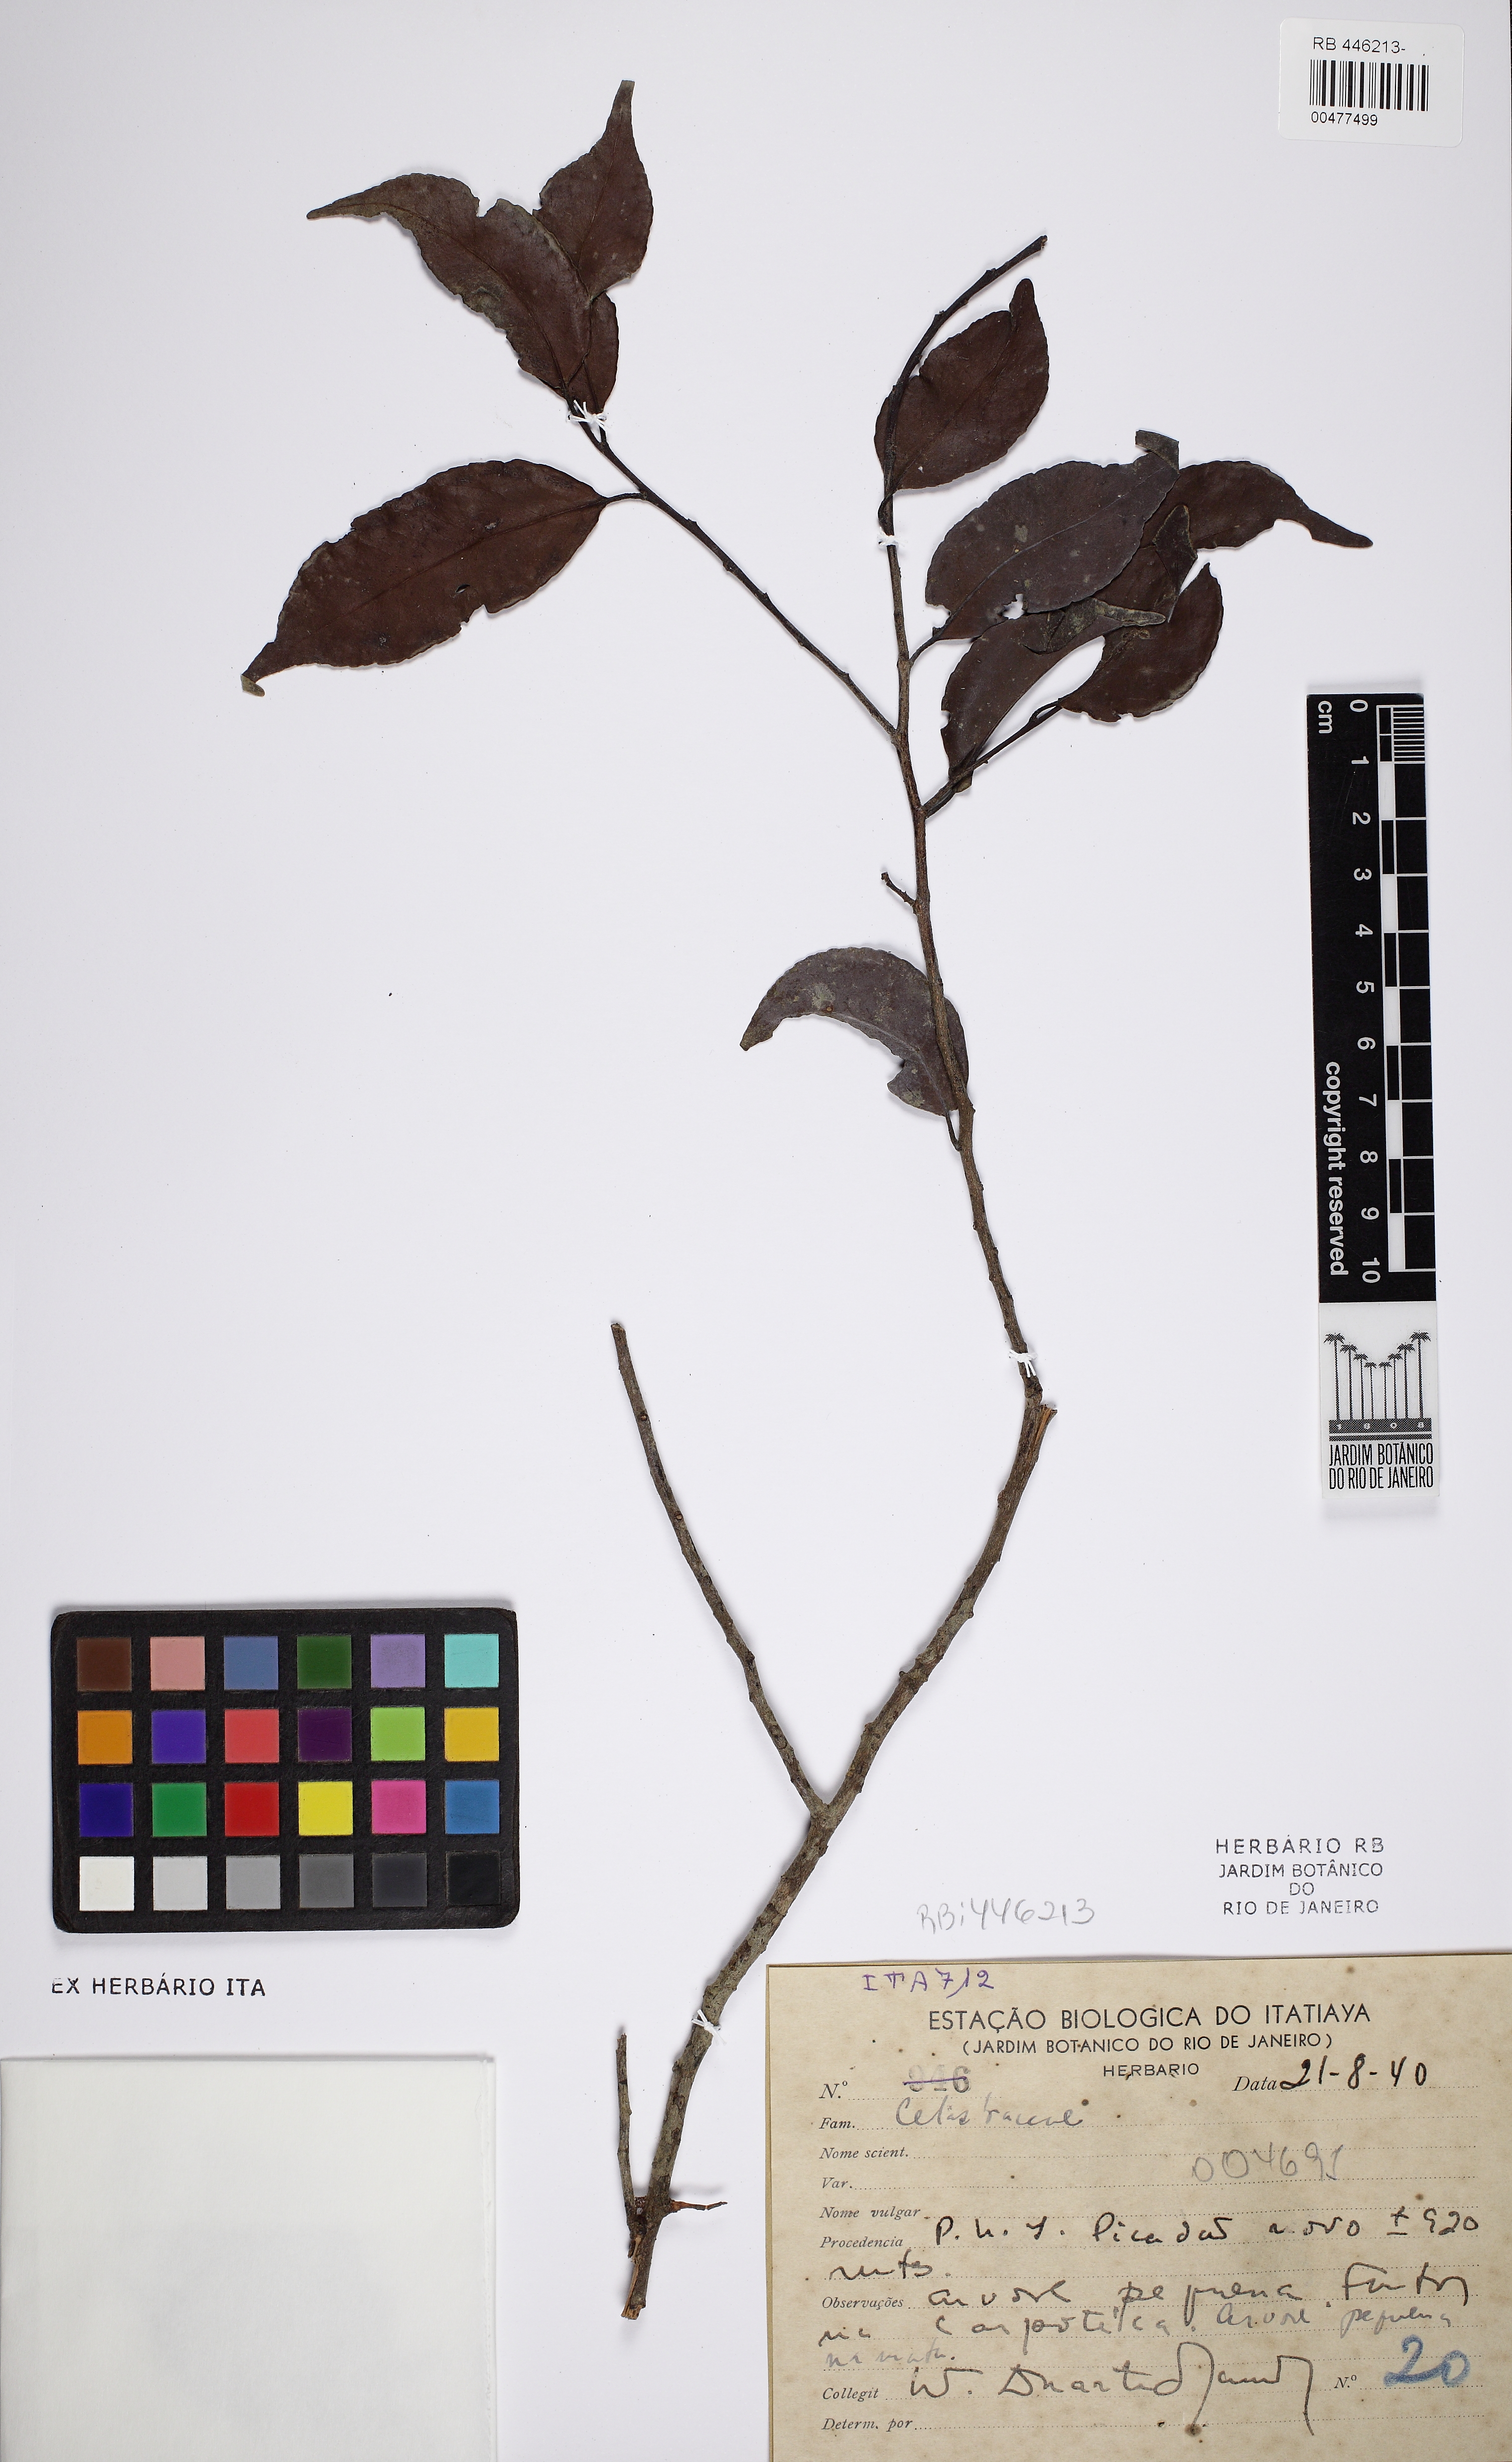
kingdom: Plantae
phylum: Tracheophyta
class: Magnoliopsida
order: Celastrales
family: Celastraceae
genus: Monteverdia
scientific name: Monteverdia gonoclada
